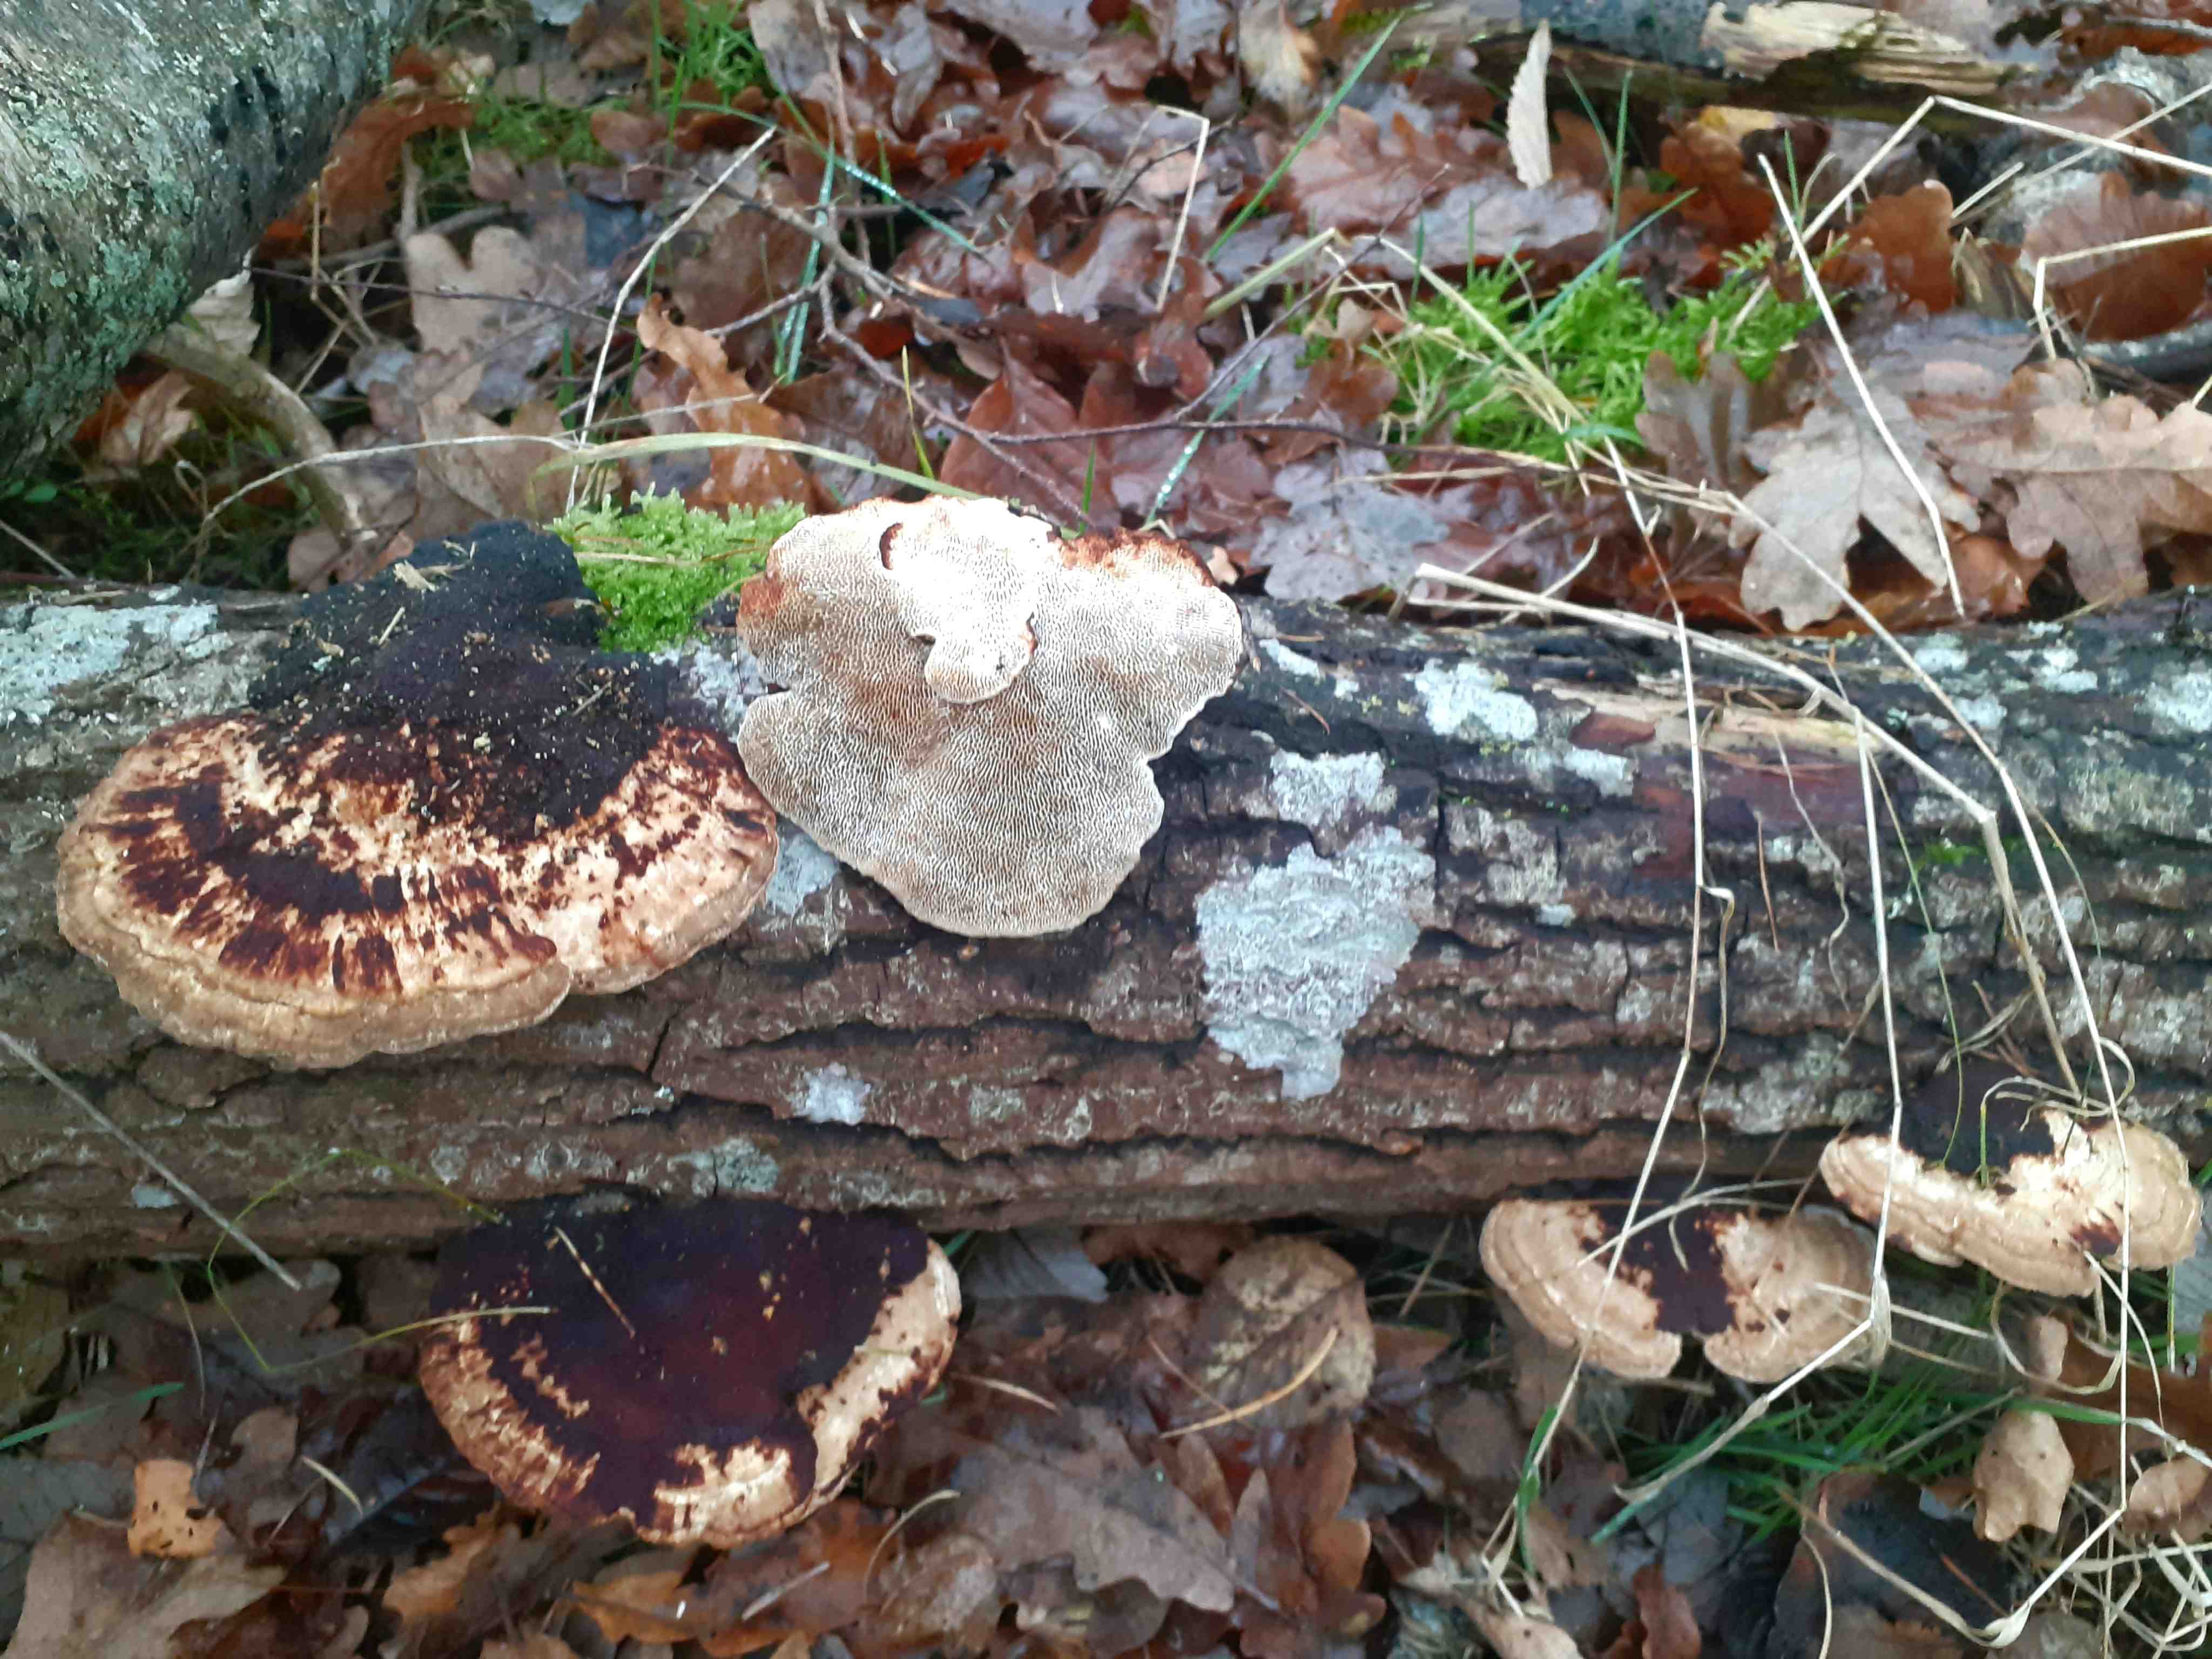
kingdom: Fungi
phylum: Basidiomycota
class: Agaricomycetes
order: Polyporales
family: Polyporaceae
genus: Daedaleopsis
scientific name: Daedaleopsis confragosa
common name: rødmende læderporesvamp
